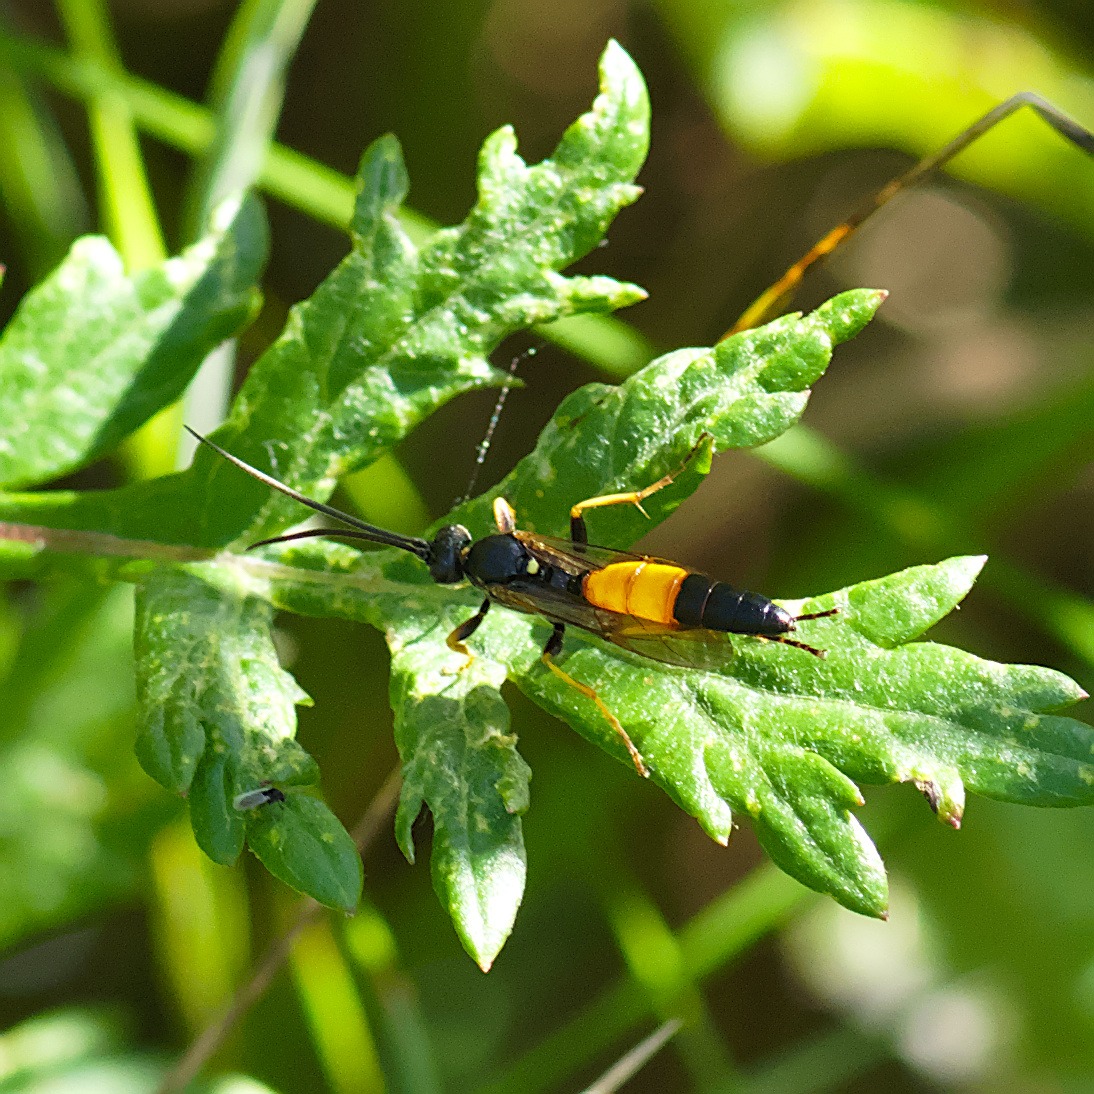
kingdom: Animalia
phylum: Arthropoda
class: Insecta
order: Hymenoptera
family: Ichneumonidae
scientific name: Ichneumonidae
